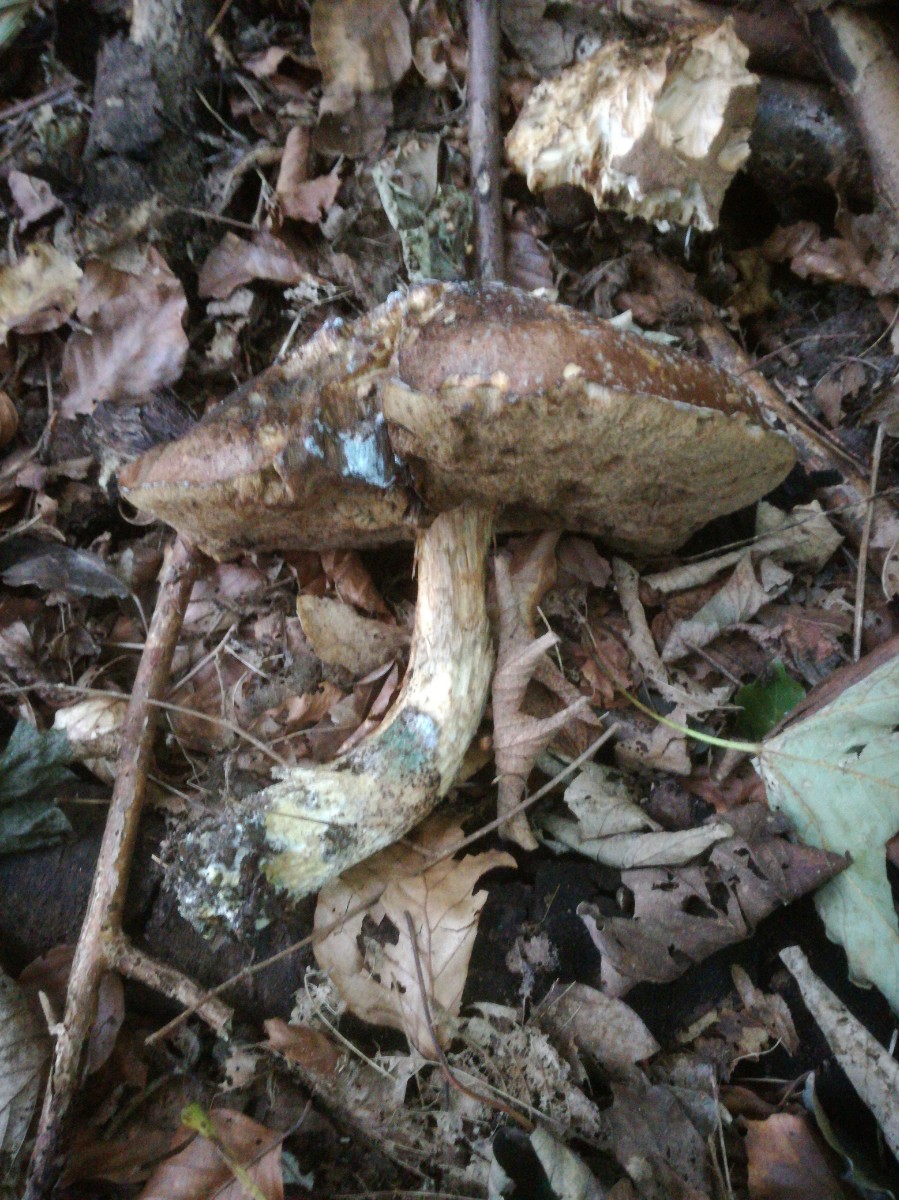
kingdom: Fungi
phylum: Basidiomycota
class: Agaricomycetes
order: Boletales
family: Boletaceae
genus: Leccinum
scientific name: Leccinum duriusculum
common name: poppel-skælrørhat
